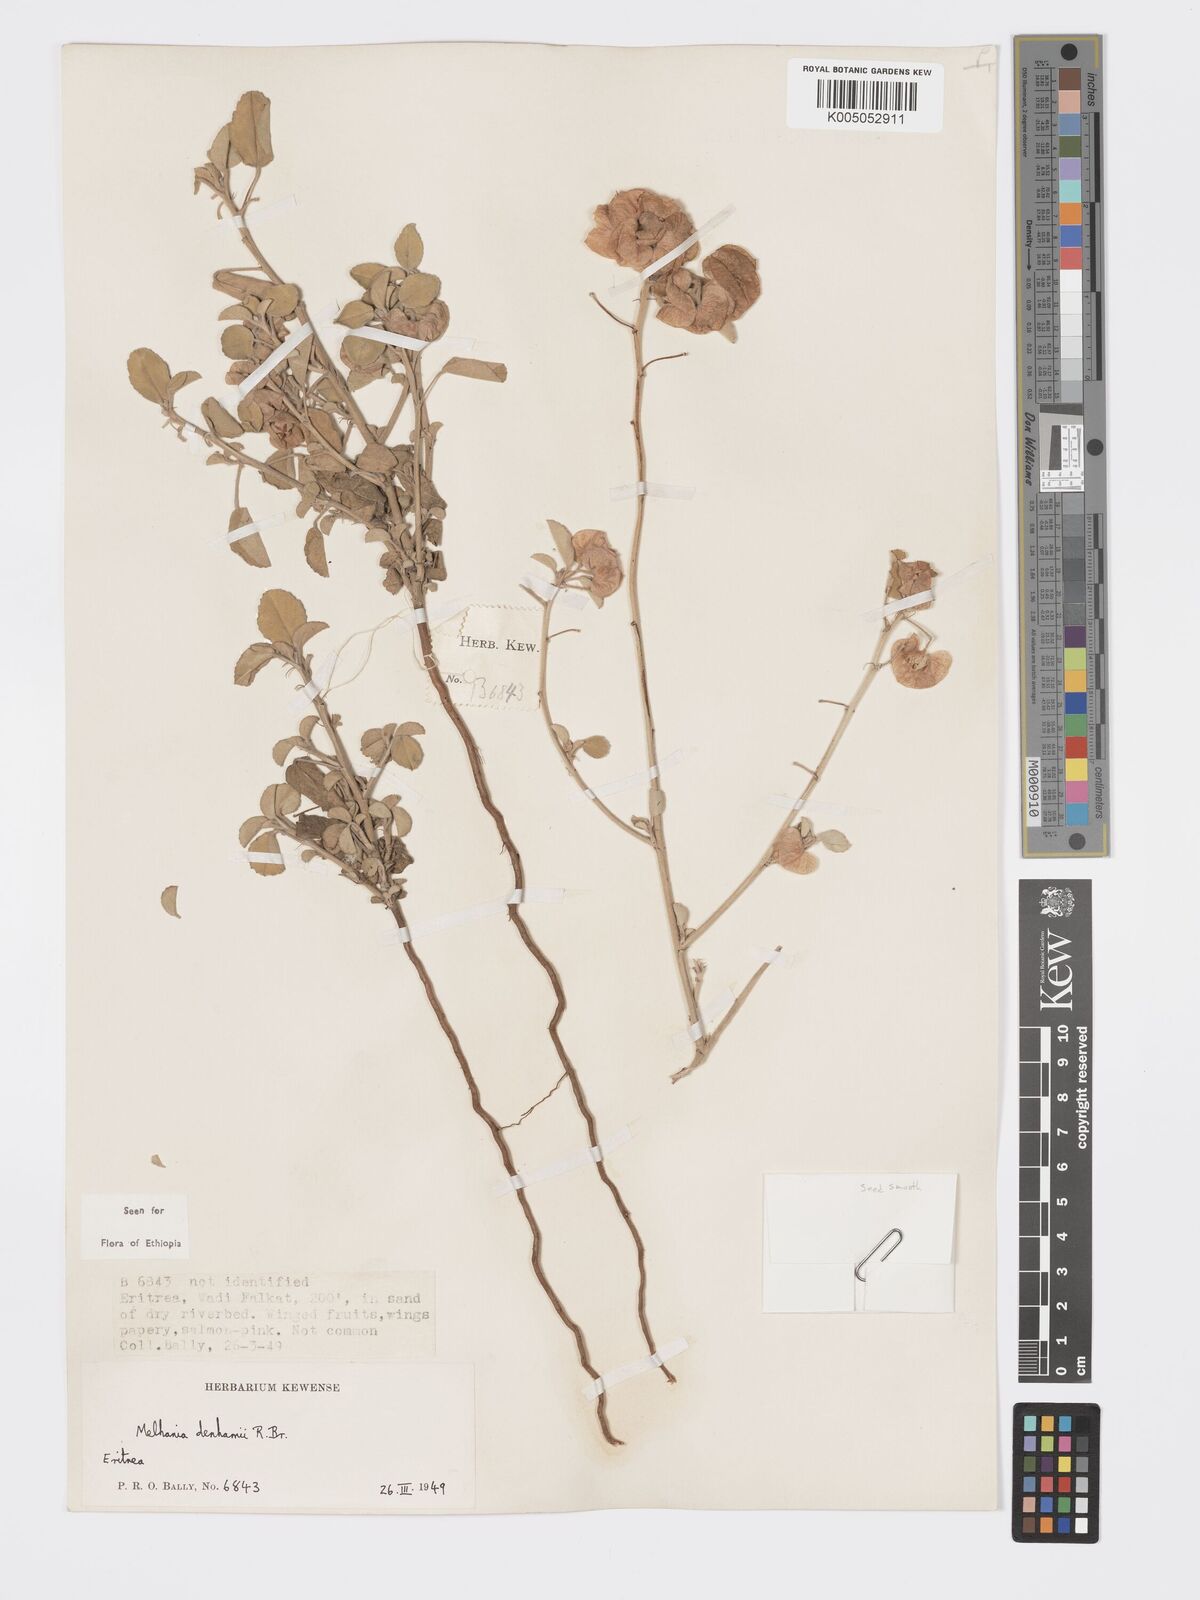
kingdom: Plantae
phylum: Tracheophyta
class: Magnoliopsida
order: Malvales
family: Malvaceae
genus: Melhania
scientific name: Melhania denhamii
